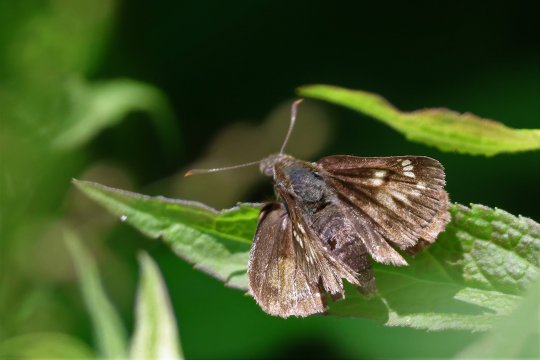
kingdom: Animalia
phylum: Arthropoda
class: Insecta
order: Lepidoptera
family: Hesperiidae
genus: Lon
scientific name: Lon hobomok
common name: Hobomok Skipper
